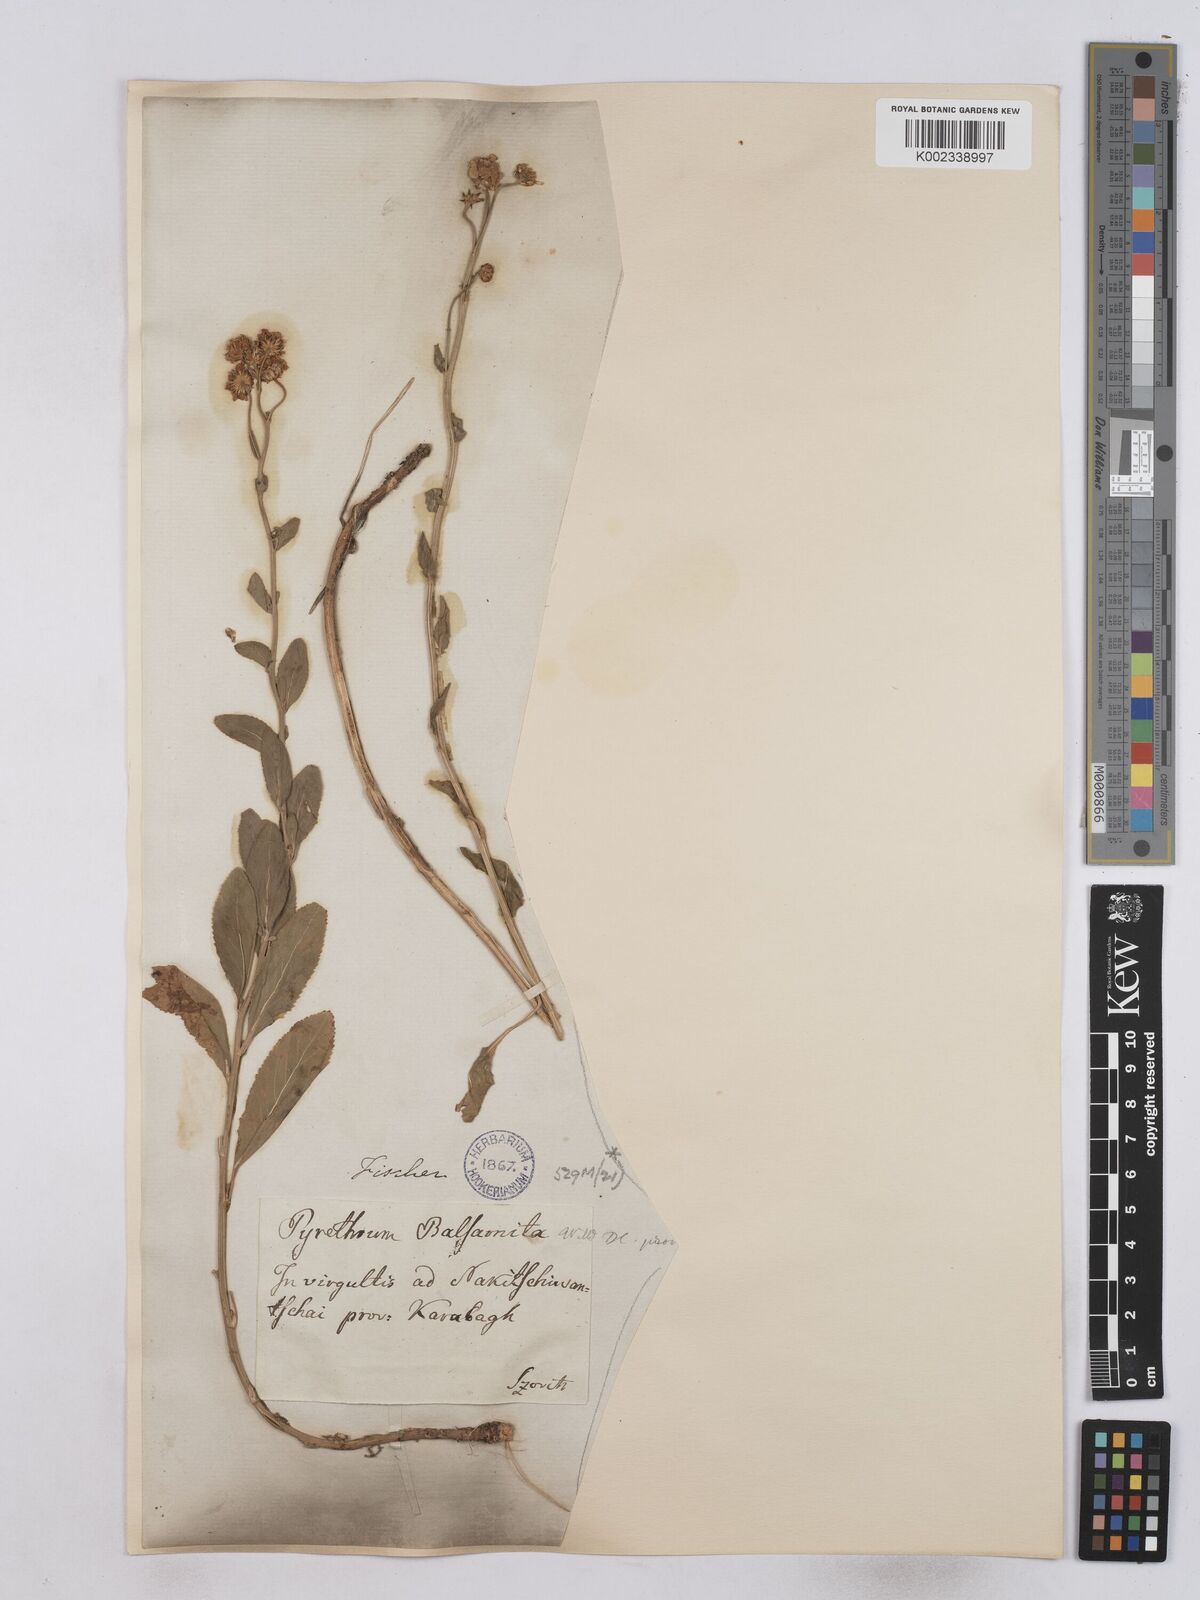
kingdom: Plantae
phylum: Tracheophyta
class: Magnoliopsida
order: Asterales
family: Asteraceae
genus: Tanacetum
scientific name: Tanacetum balsamita
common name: Costmary
